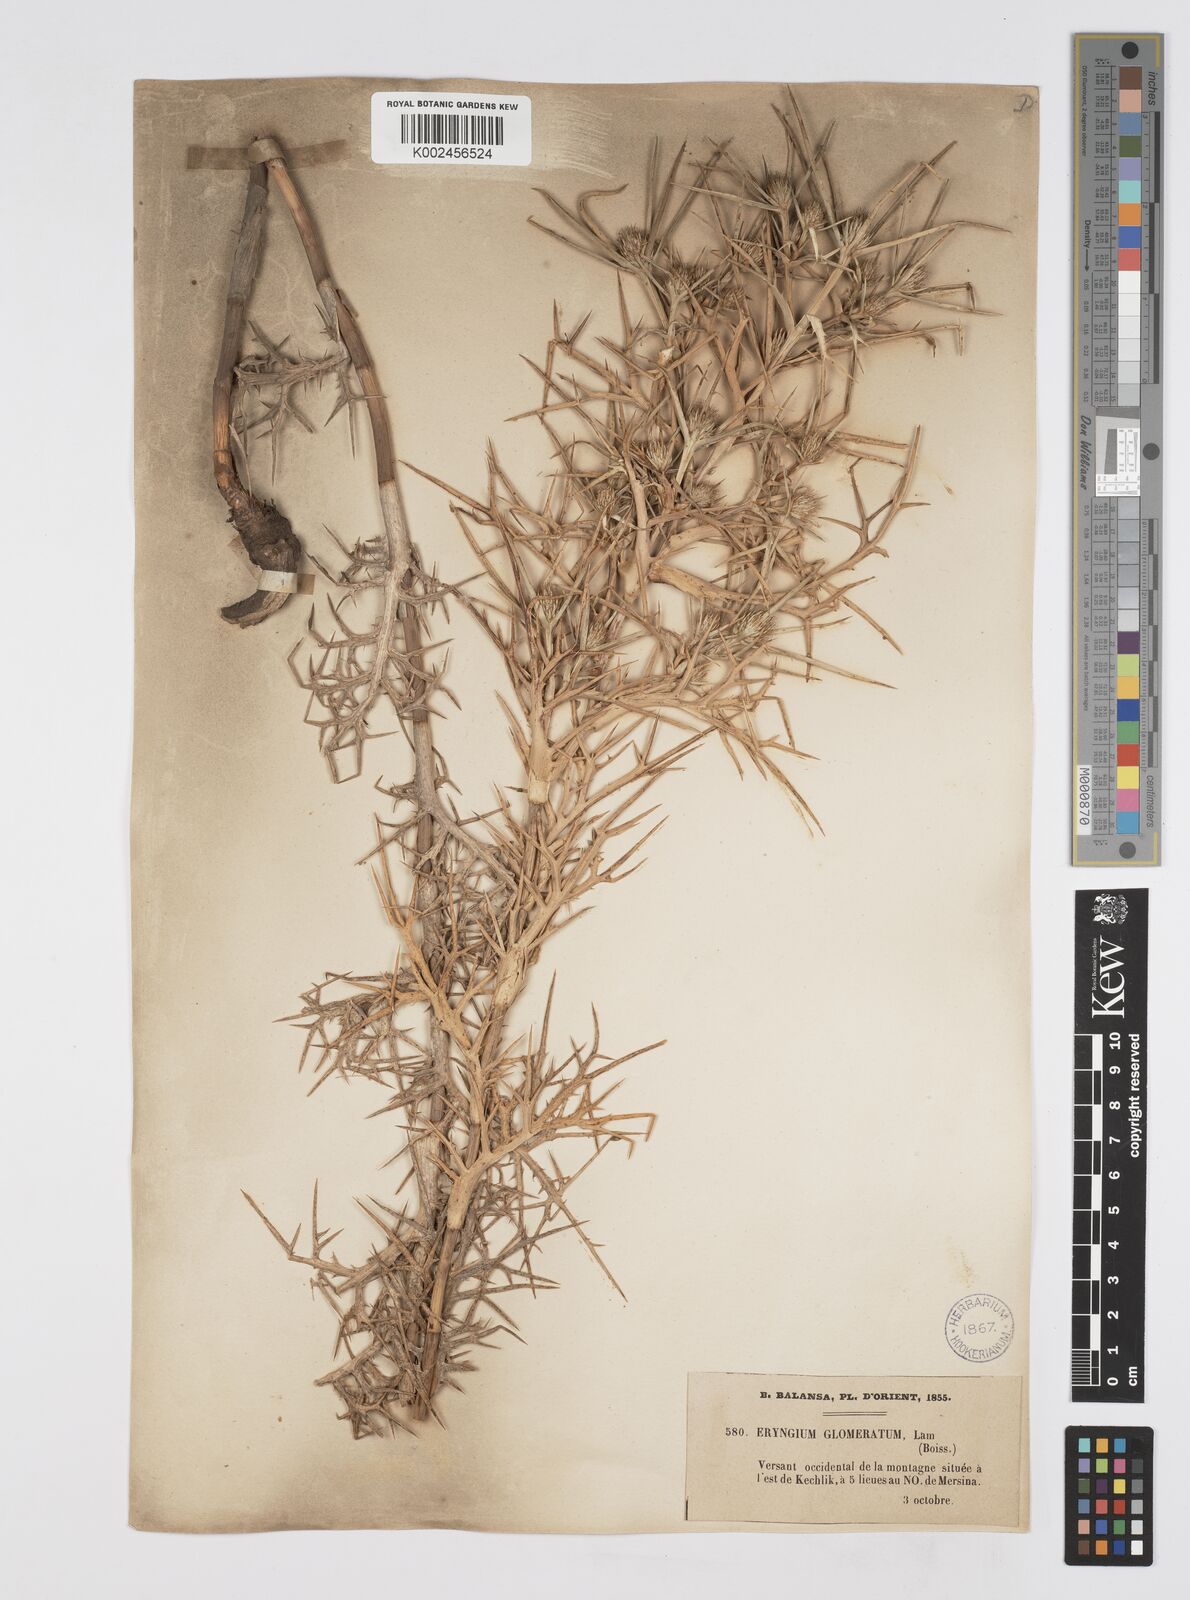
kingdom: Plantae
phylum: Tracheophyta
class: Magnoliopsida
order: Apiales
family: Apiaceae
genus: Eryngium
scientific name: Eryngium glomeratum
